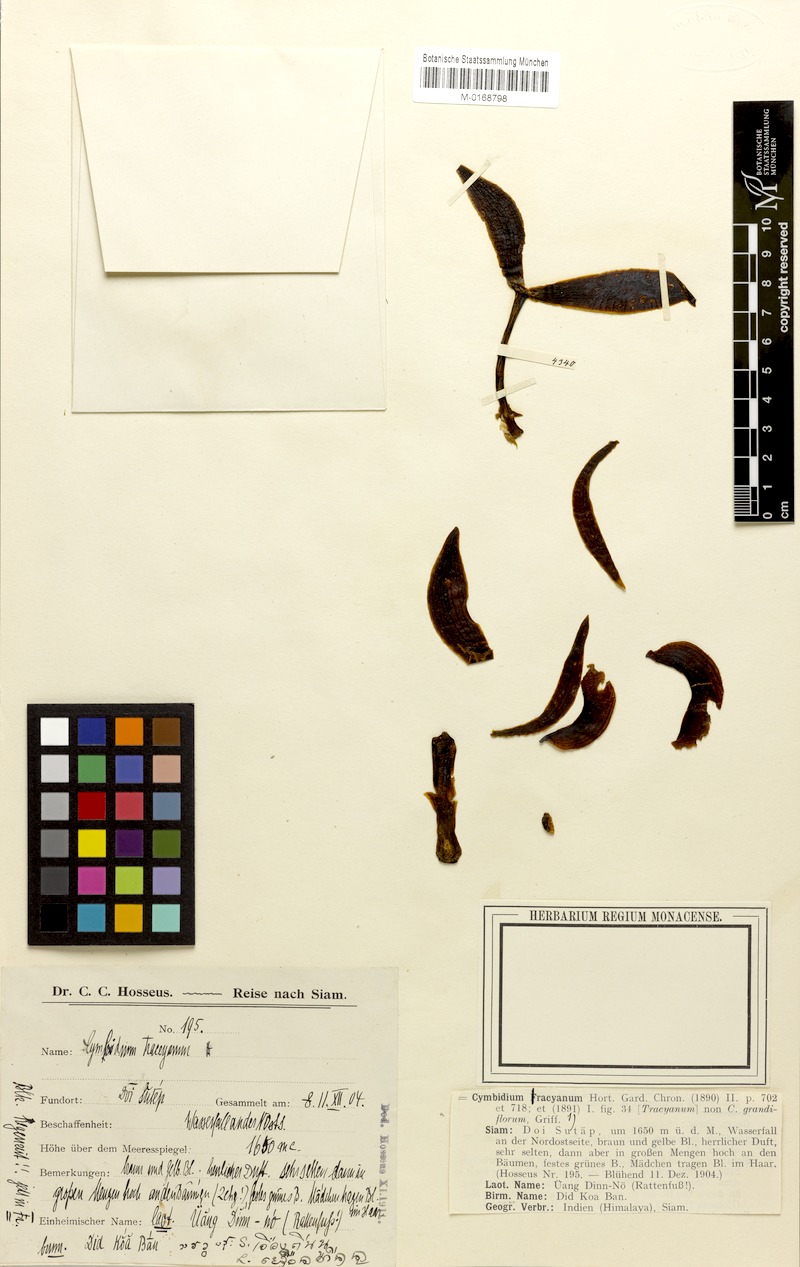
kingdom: Plantae
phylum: Tracheophyta
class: Liliopsida
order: Asparagales
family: Orchidaceae
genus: Cymbidium
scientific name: Cymbidium tracyanum
